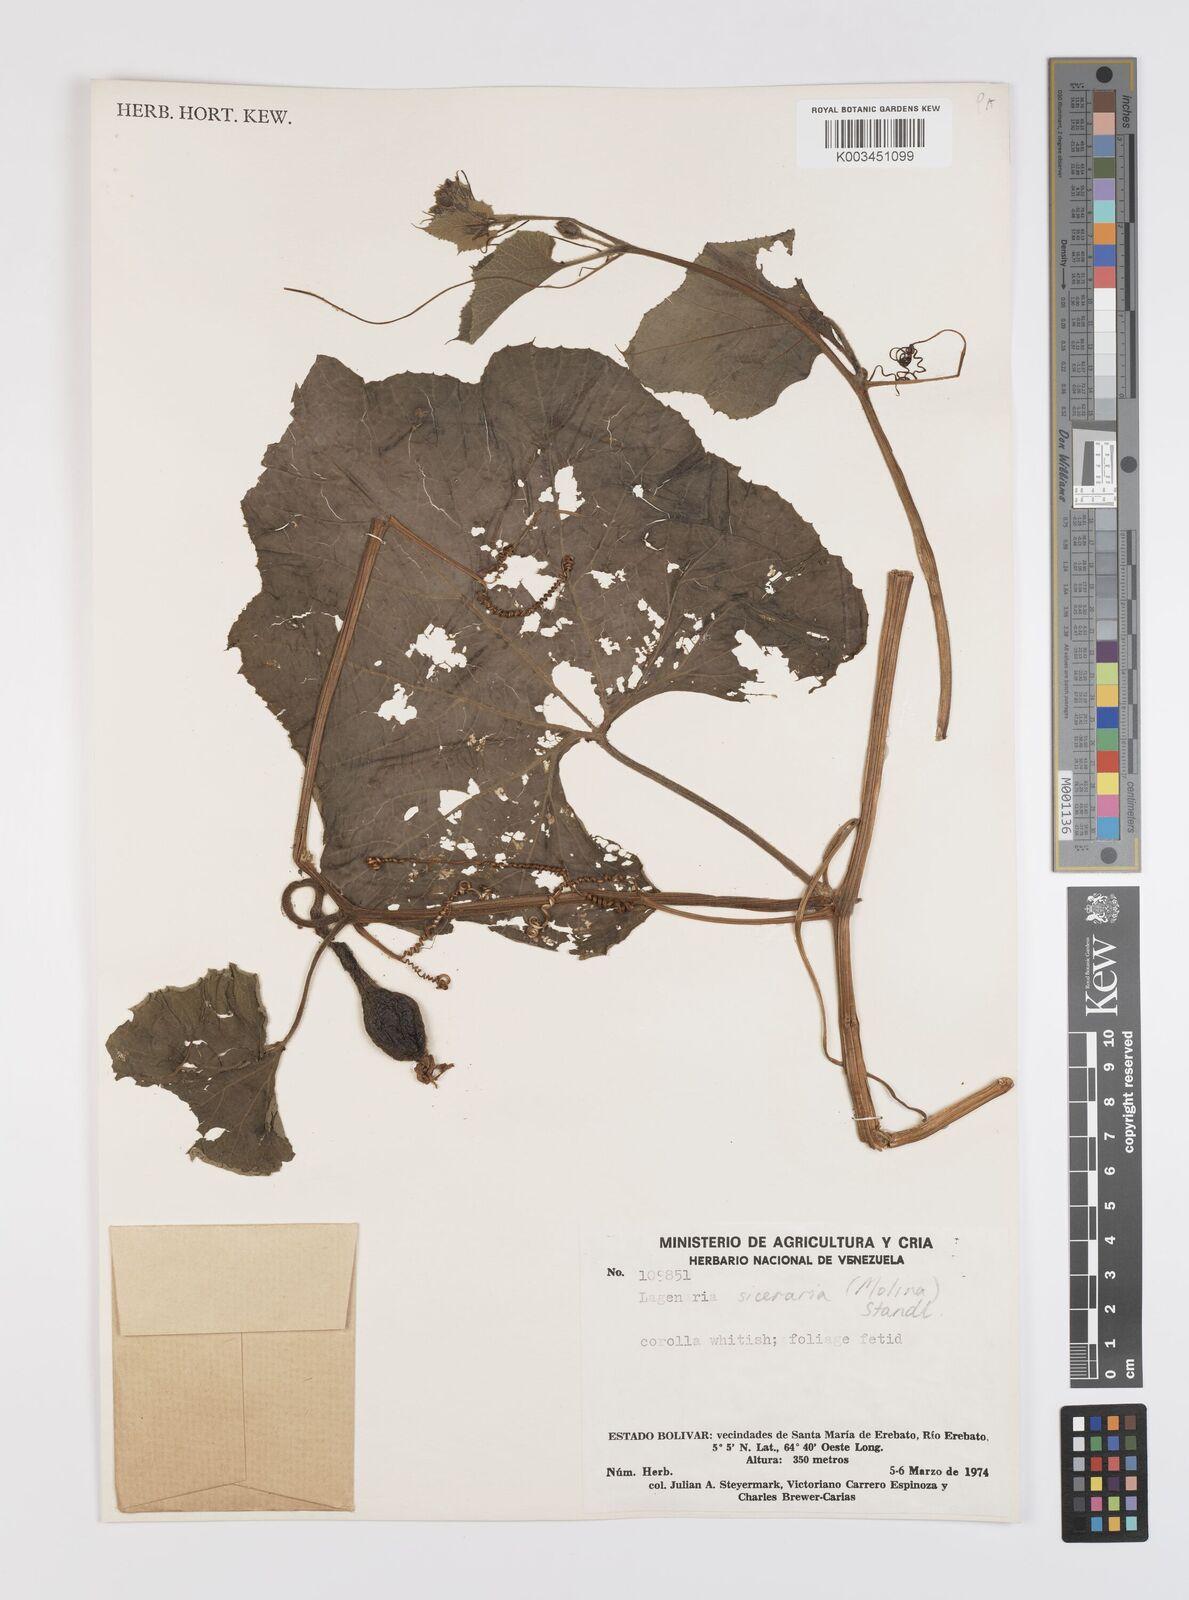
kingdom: Plantae
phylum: Tracheophyta
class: Magnoliopsida
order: Cucurbitales
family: Cucurbitaceae
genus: Lagenaria
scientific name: Lagenaria siceraria
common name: Bottle gourd
